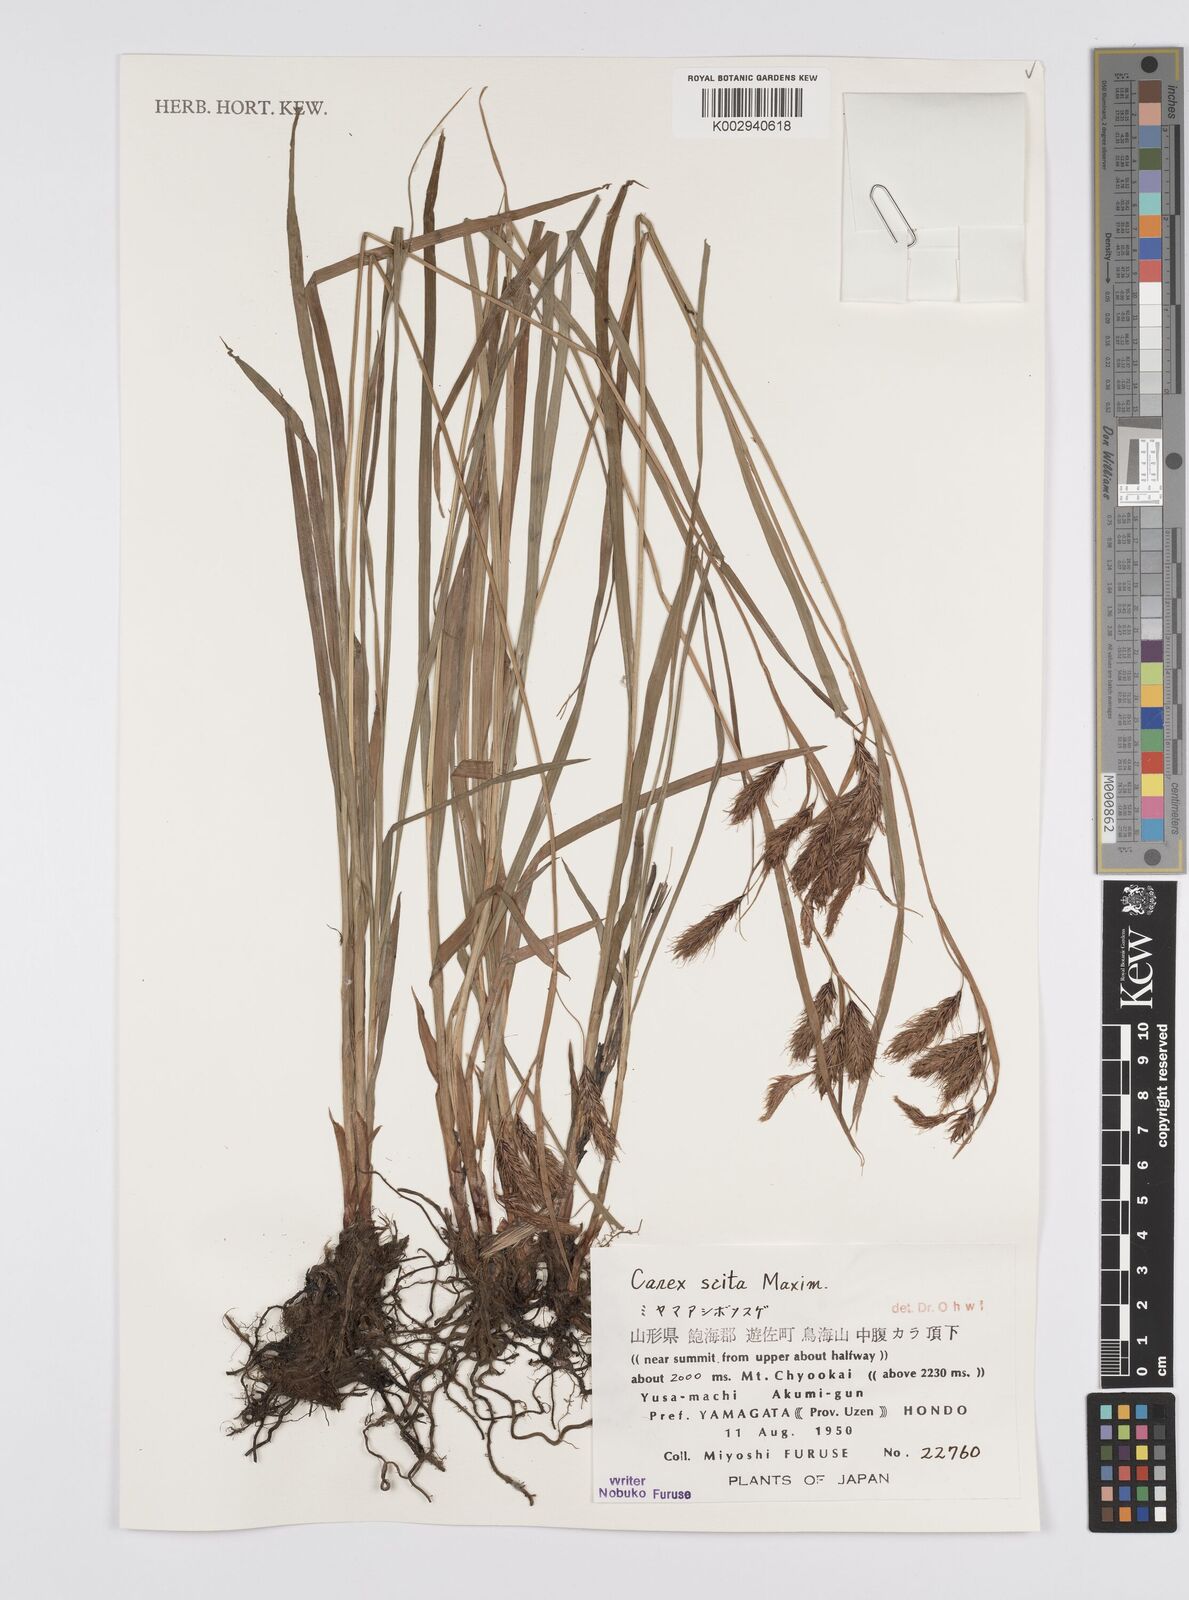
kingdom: Plantae
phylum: Tracheophyta
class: Liliopsida
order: Poales
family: Cyperaceae
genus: Carex
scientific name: Carex scita
